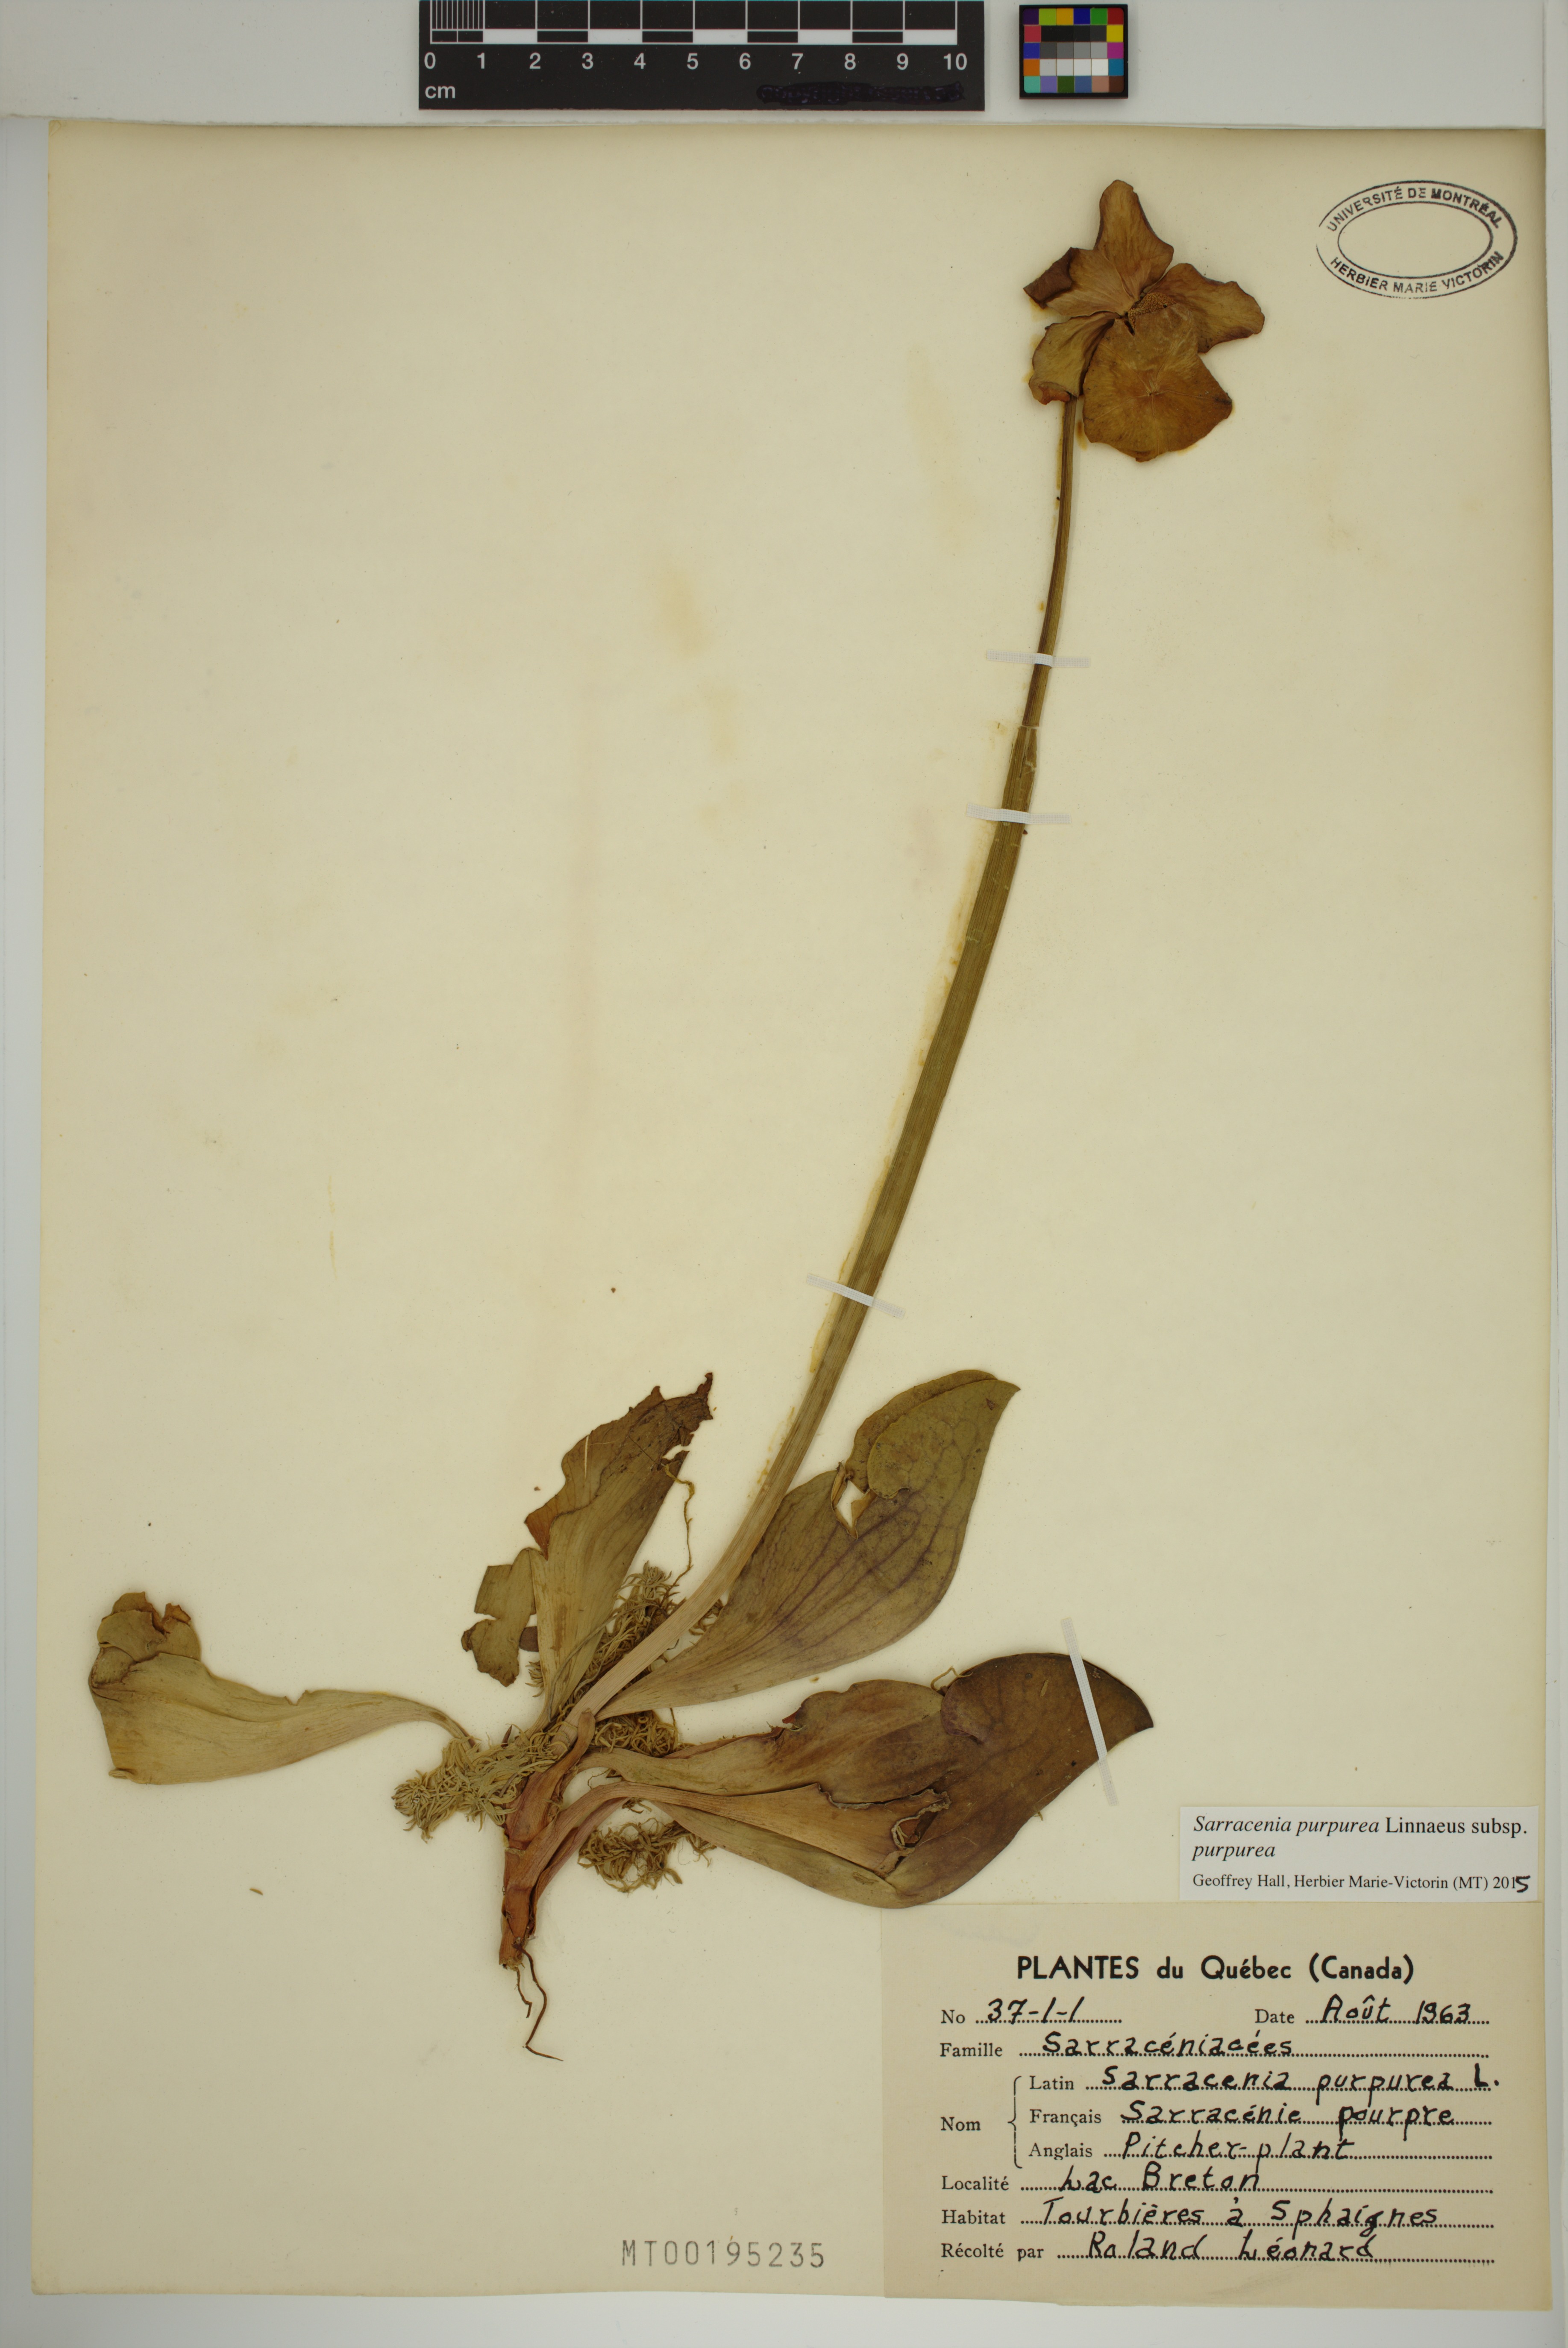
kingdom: Plantae
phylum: Tracheophyta
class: Magnoliopsida
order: Ericales
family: Sarraceniaceae
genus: Sarracenia
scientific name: Sarracenia purpurea
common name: Pitcherplant
